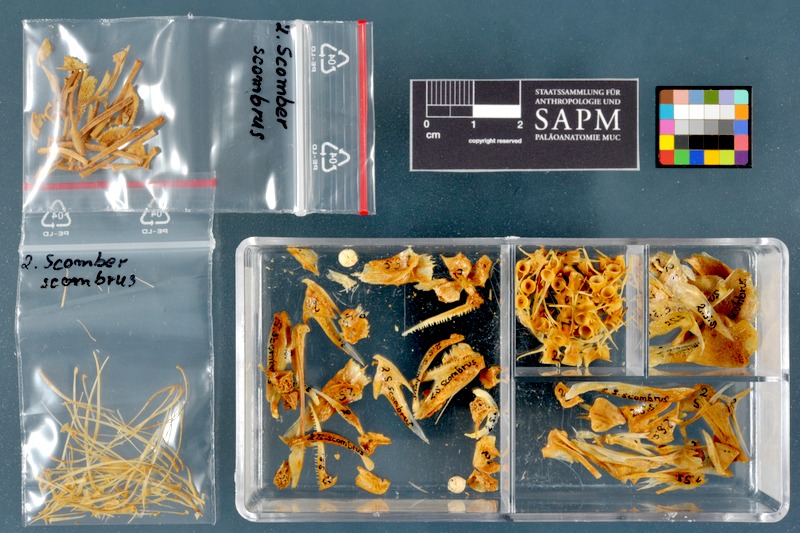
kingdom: Animalia
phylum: Chordata
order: Perciformes
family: Scombridae
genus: Scomber
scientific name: Scomber scombrus
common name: Mackerel
